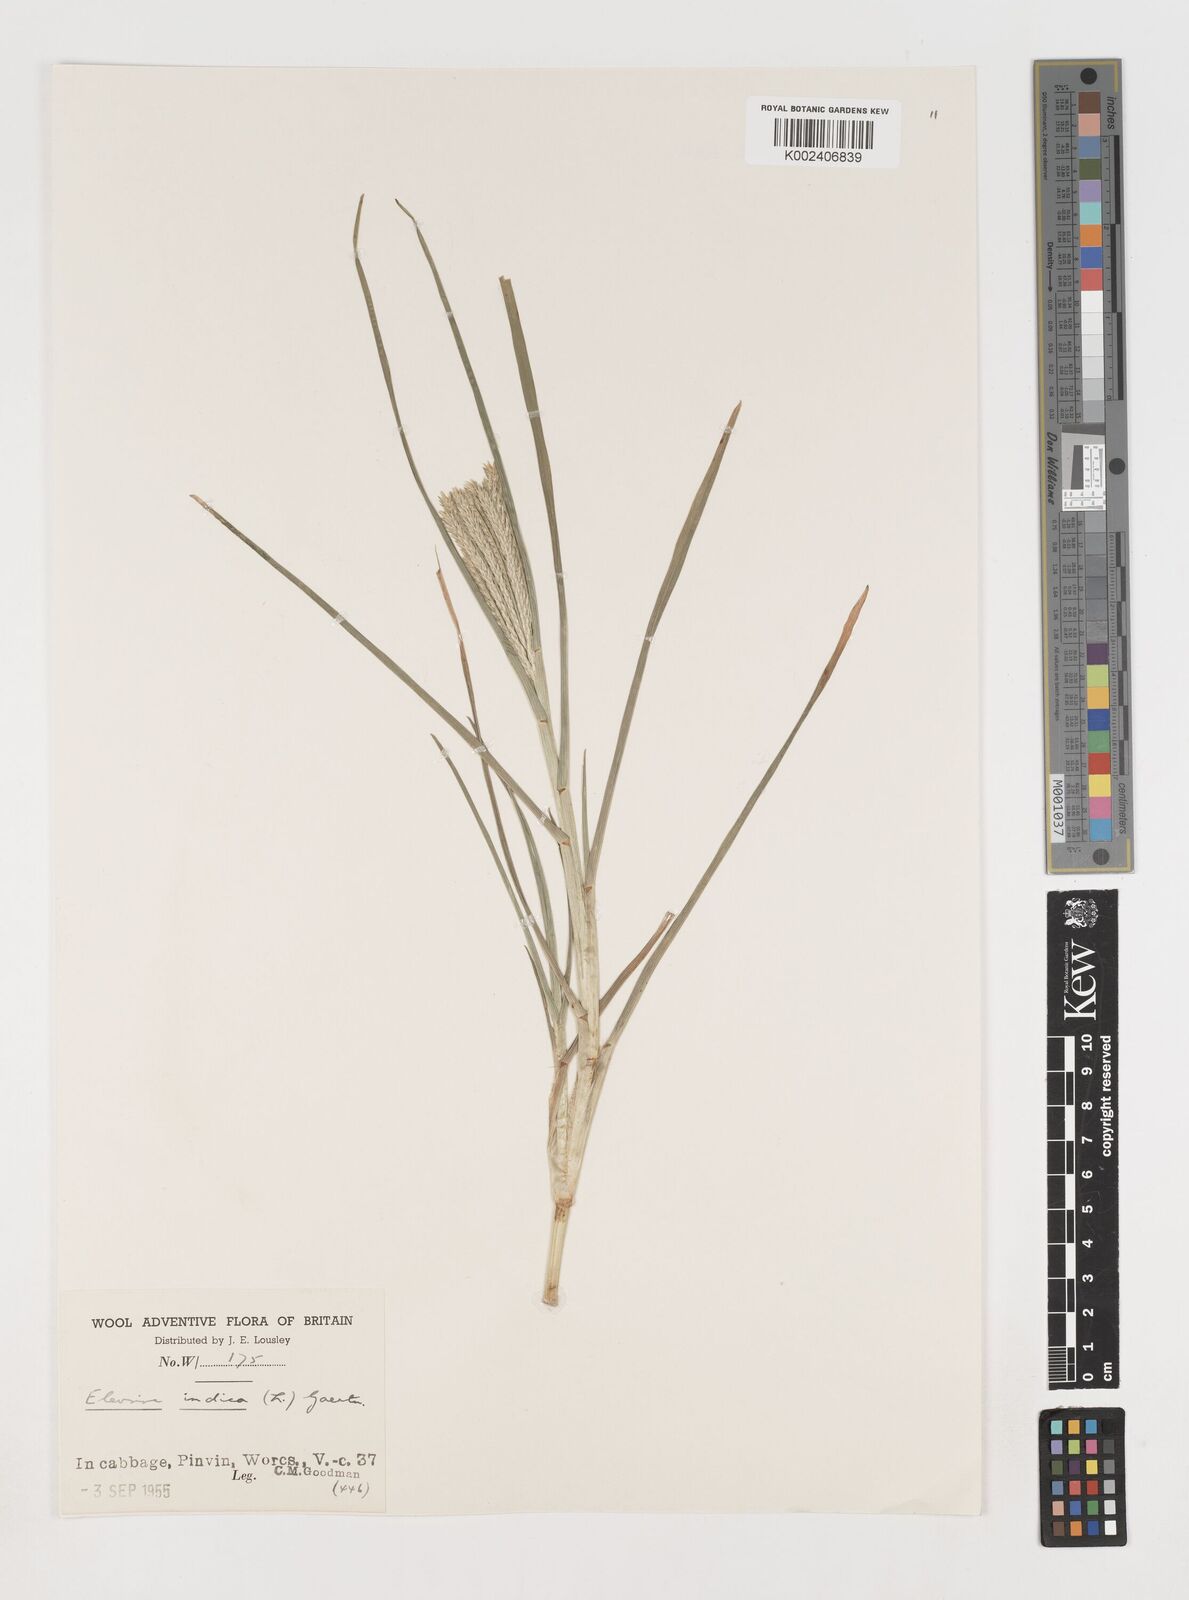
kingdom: Plantae
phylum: Tracheophyta
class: Liliopsida
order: Poales
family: Poaceae
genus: Eleusine
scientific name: Eleusine africana
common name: Wild african finger millet
